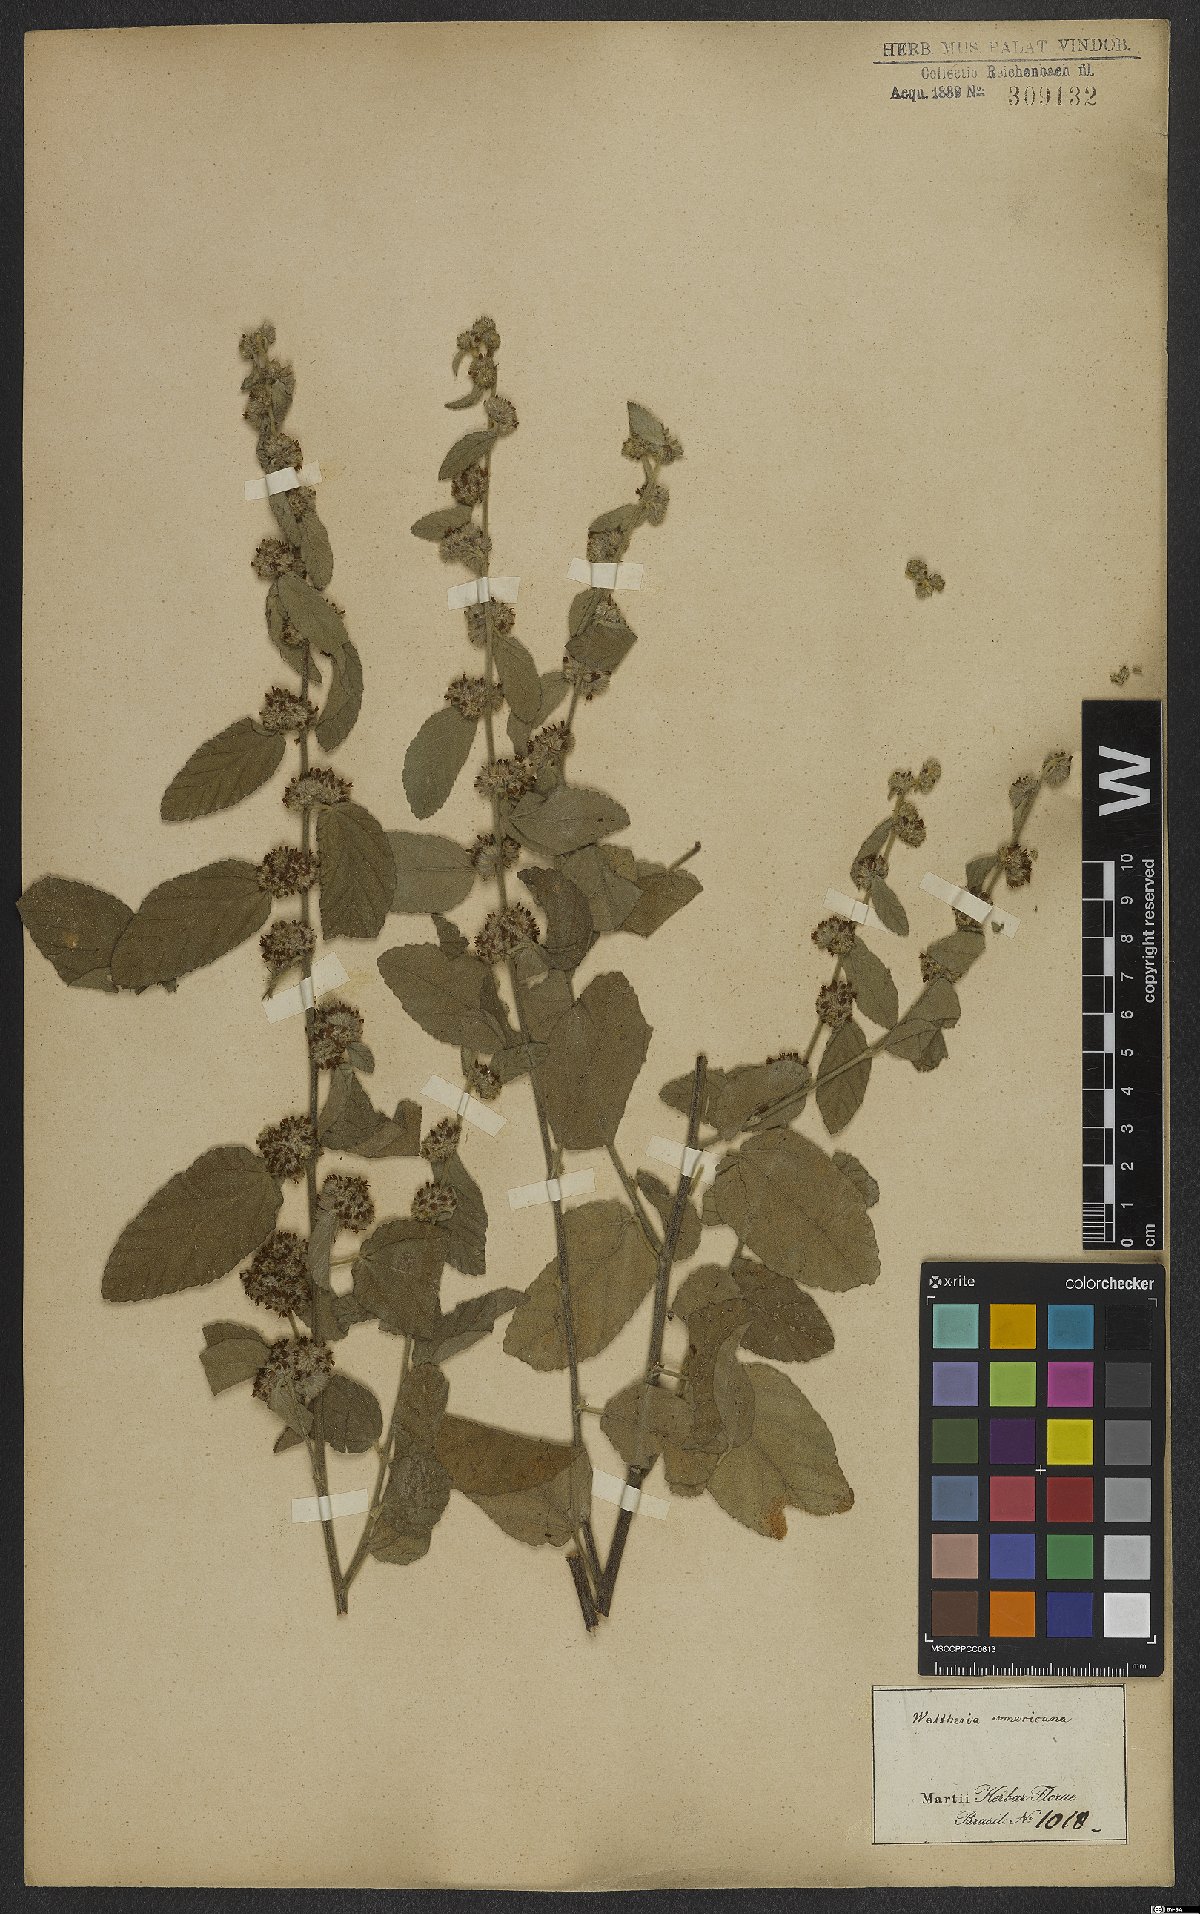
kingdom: Plantae
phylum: Tracheophyta
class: Magnoliopsida
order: Malvales
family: Malvaceae
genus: Waltheria
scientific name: Waltheria indica
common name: Leather-coat
